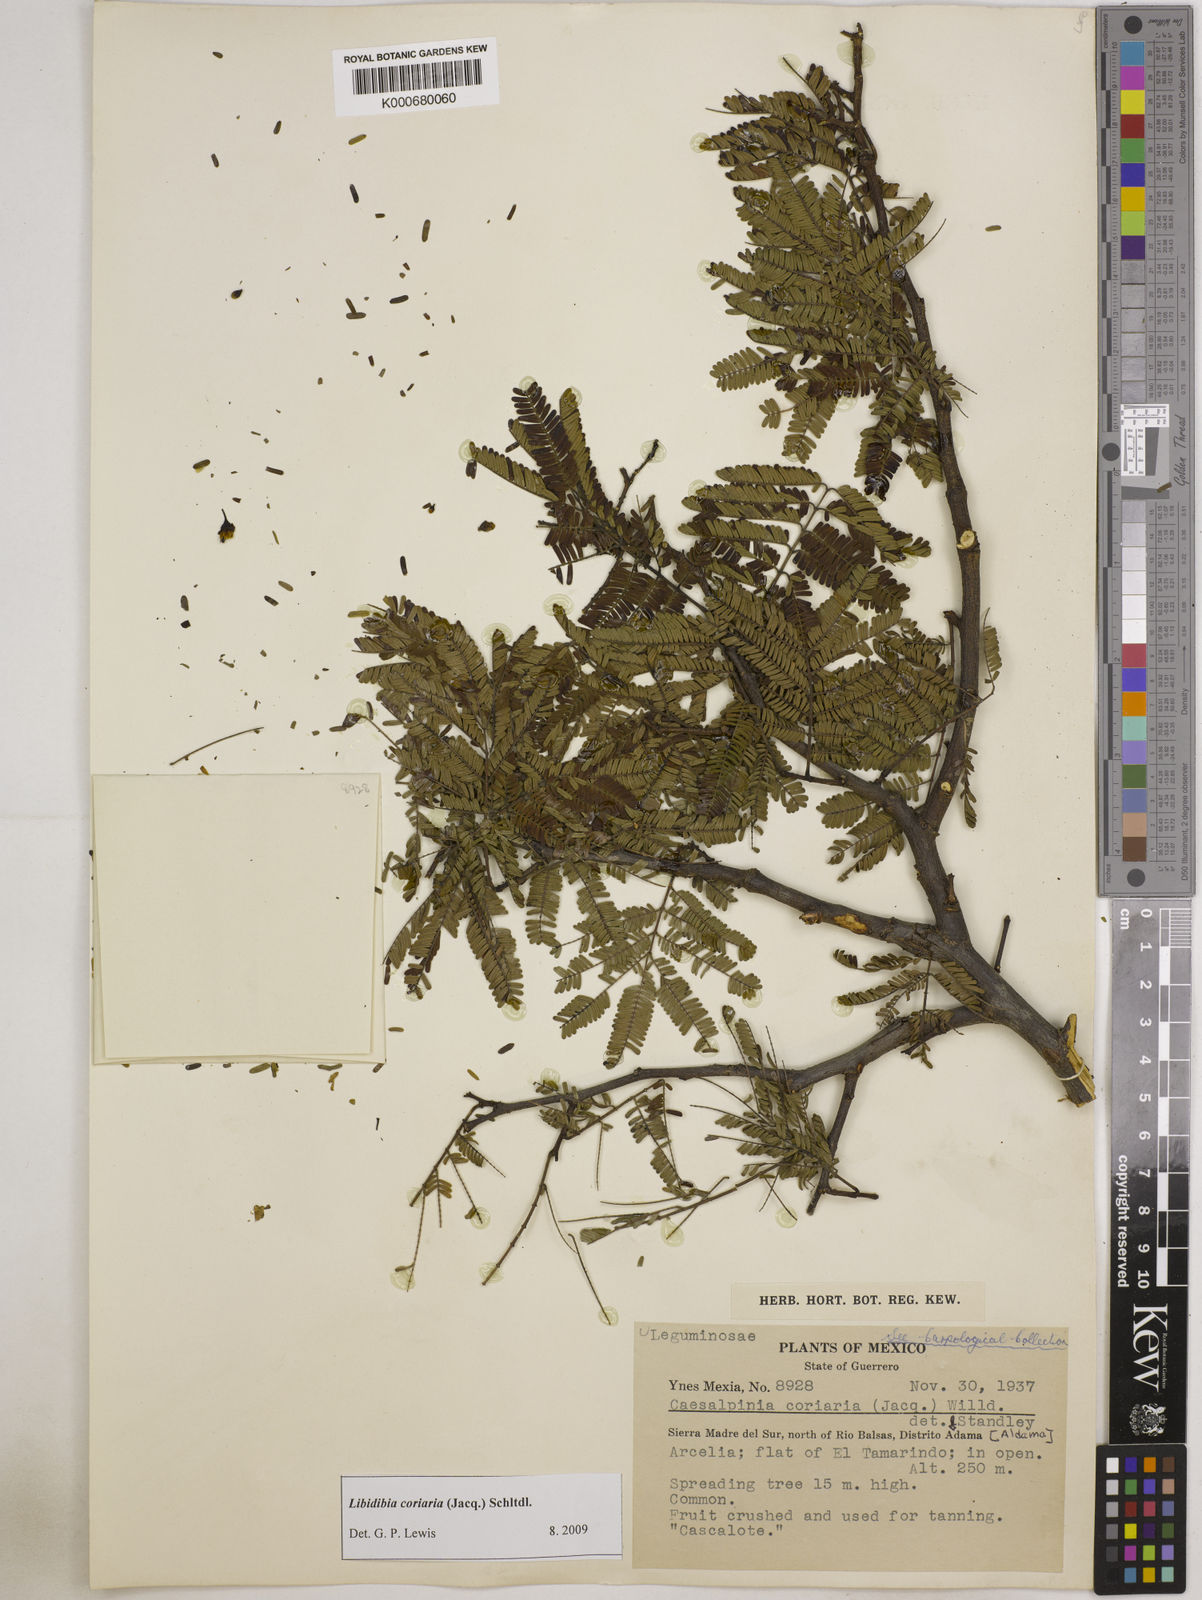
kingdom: Plantae
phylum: Tracheophyta
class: Magnoliopsida
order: Fabales
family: Fabaceae
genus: Libidibia
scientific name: Libidibia coriaria
